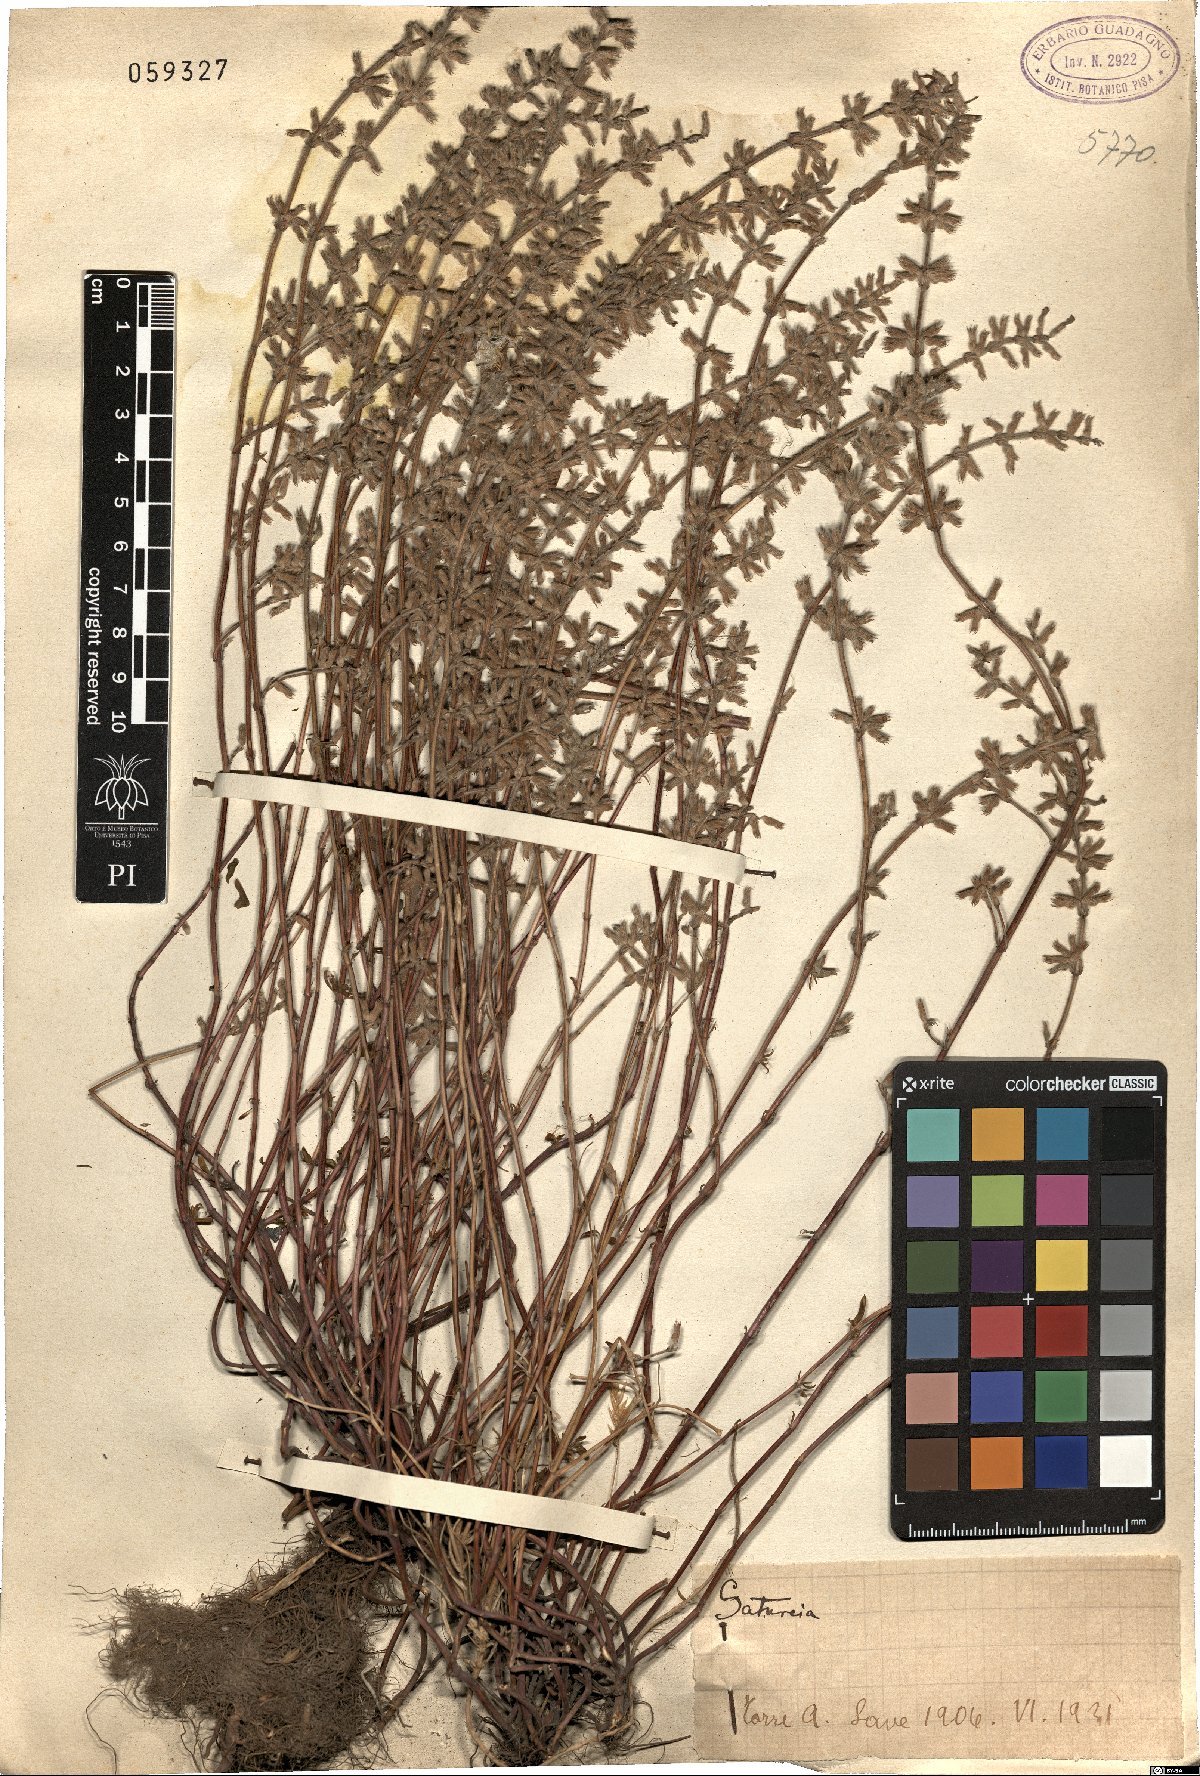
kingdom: Plantae
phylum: Tracheophyta
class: Magnoliopsida
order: Lamiales
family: Lamiaceae
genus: Satureja
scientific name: Satureja
